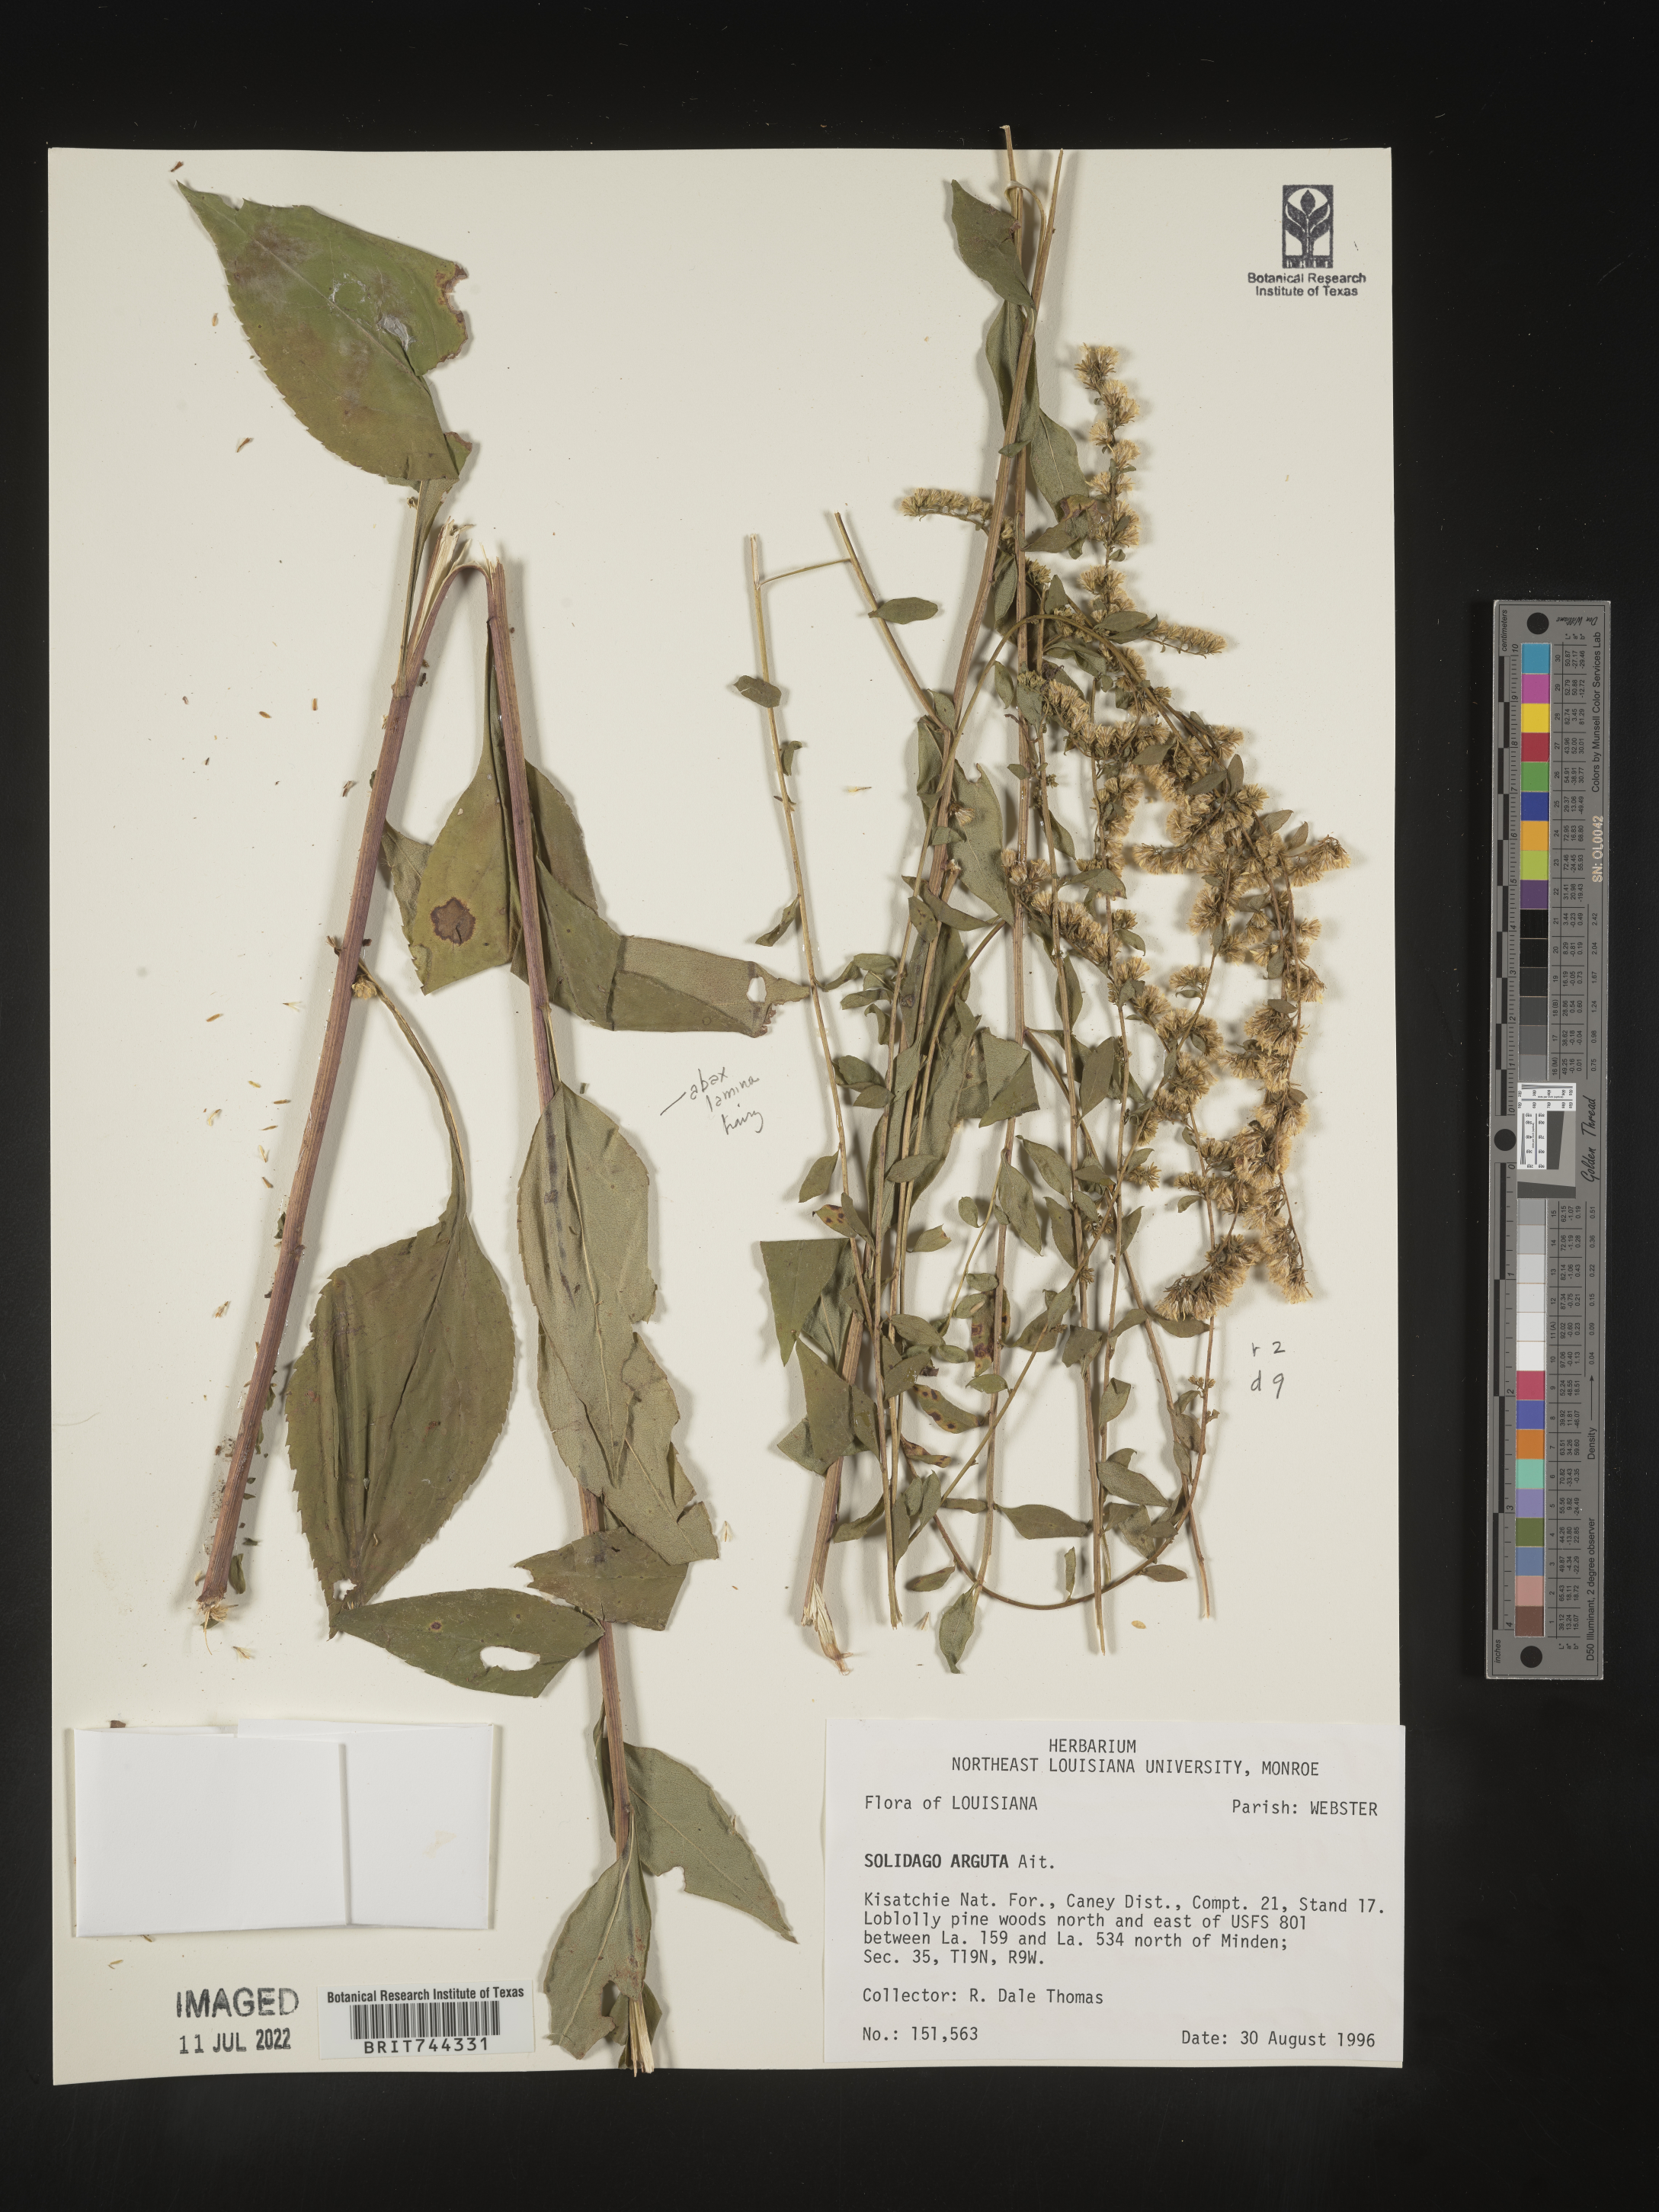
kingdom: Plantae
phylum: Tracheophyta
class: Magnoliopsida
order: Asterales
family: Asteraceae
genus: Solidago
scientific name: Solidago arguta
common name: Atlantic goldenrod
